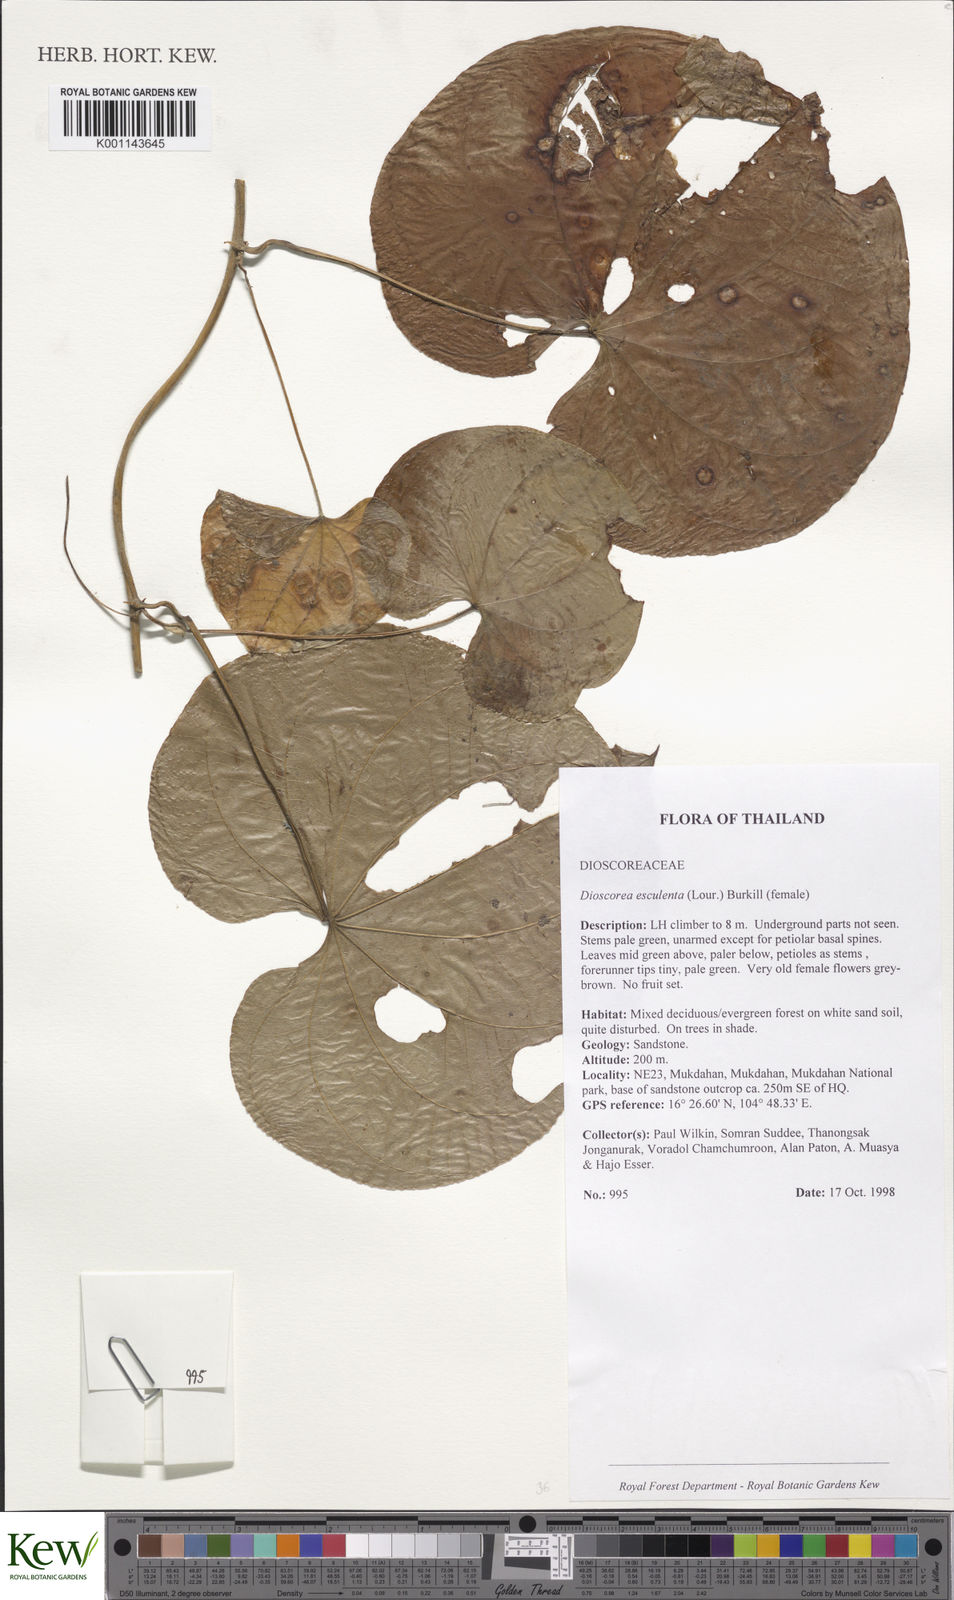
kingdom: Plantae
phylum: Tracheophyta
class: Liliopsida
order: Dioscoreales
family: Dioscoreaceae
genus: Dioscorea
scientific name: Dioscorea esculenta
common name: Chinese yam
